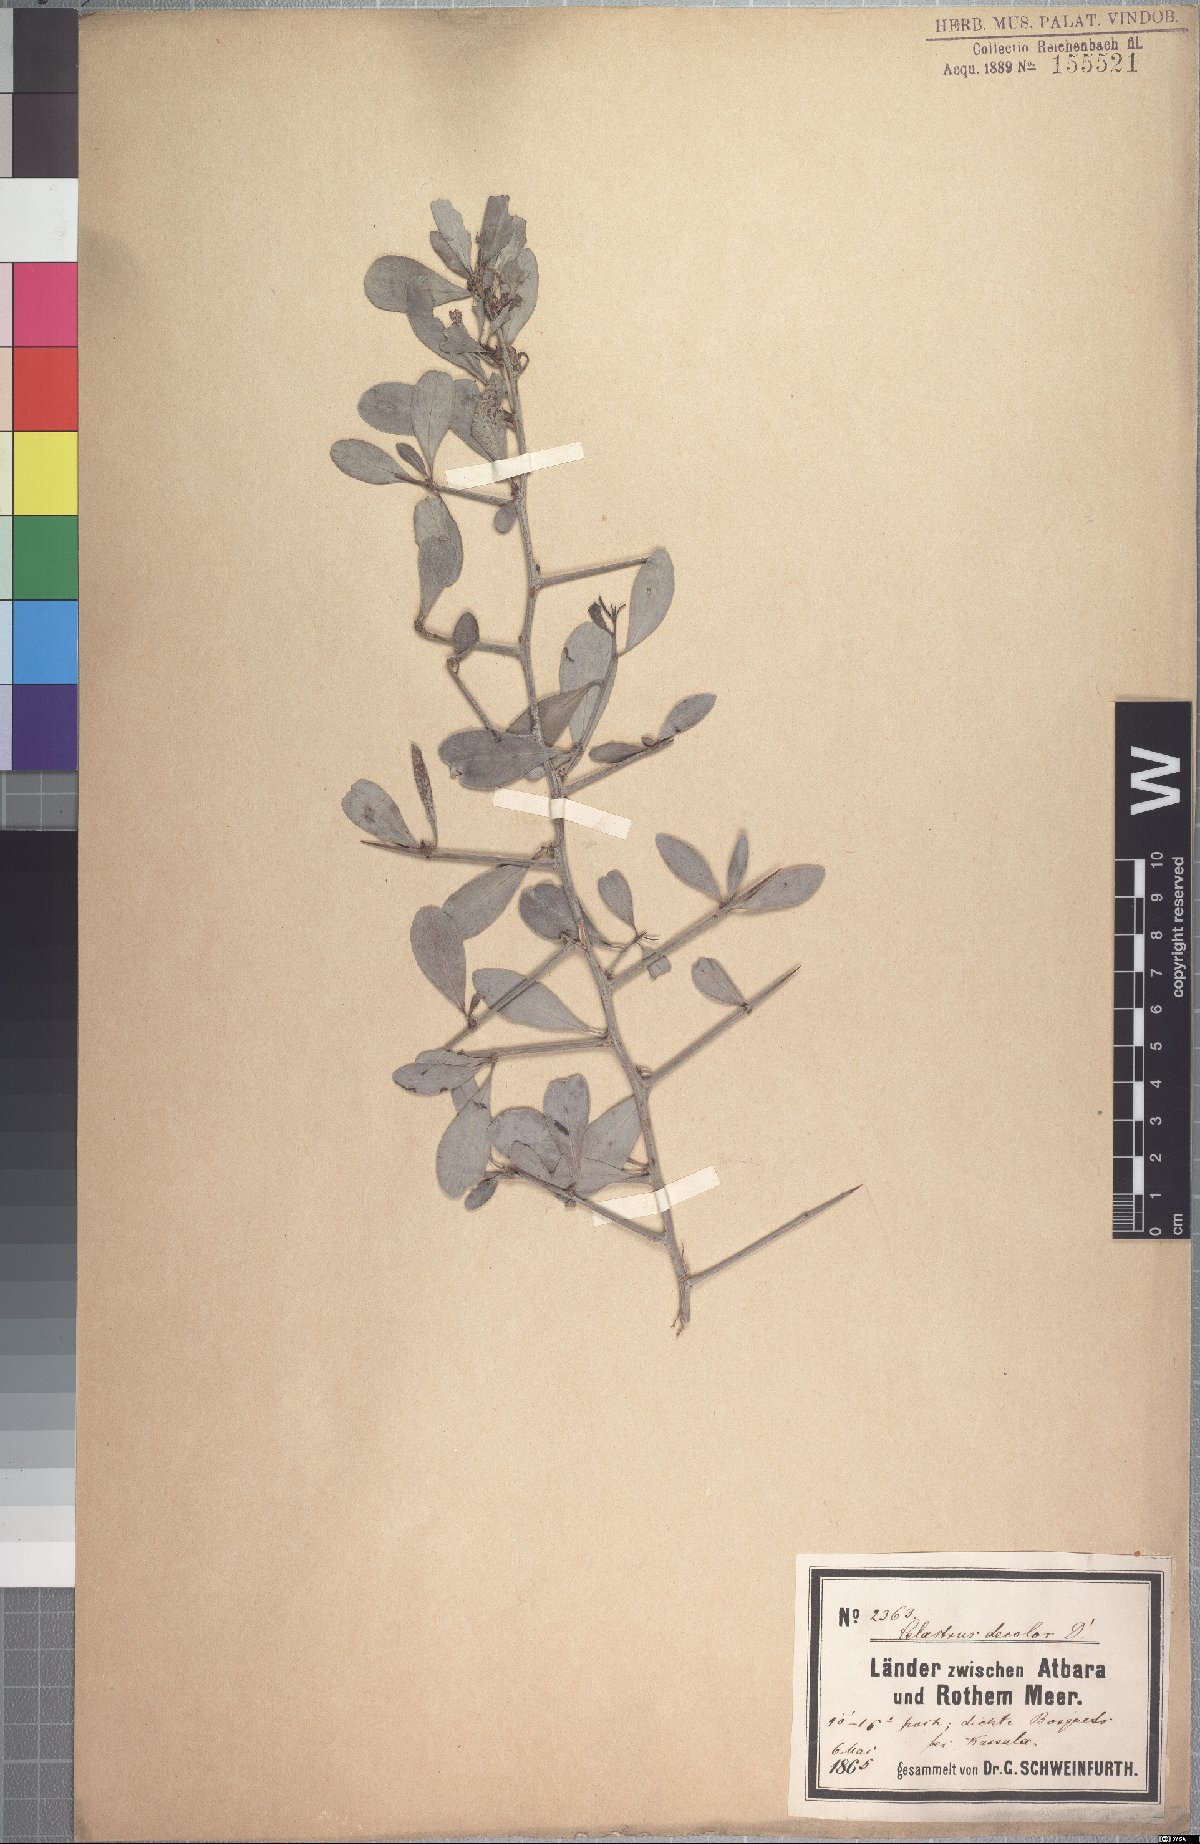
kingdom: Plantae
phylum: Tracheophyta
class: Magnoliopsida
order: Celastrales
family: Celastraceae
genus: Gymnosporia
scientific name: Gymnosporia senegalensis
